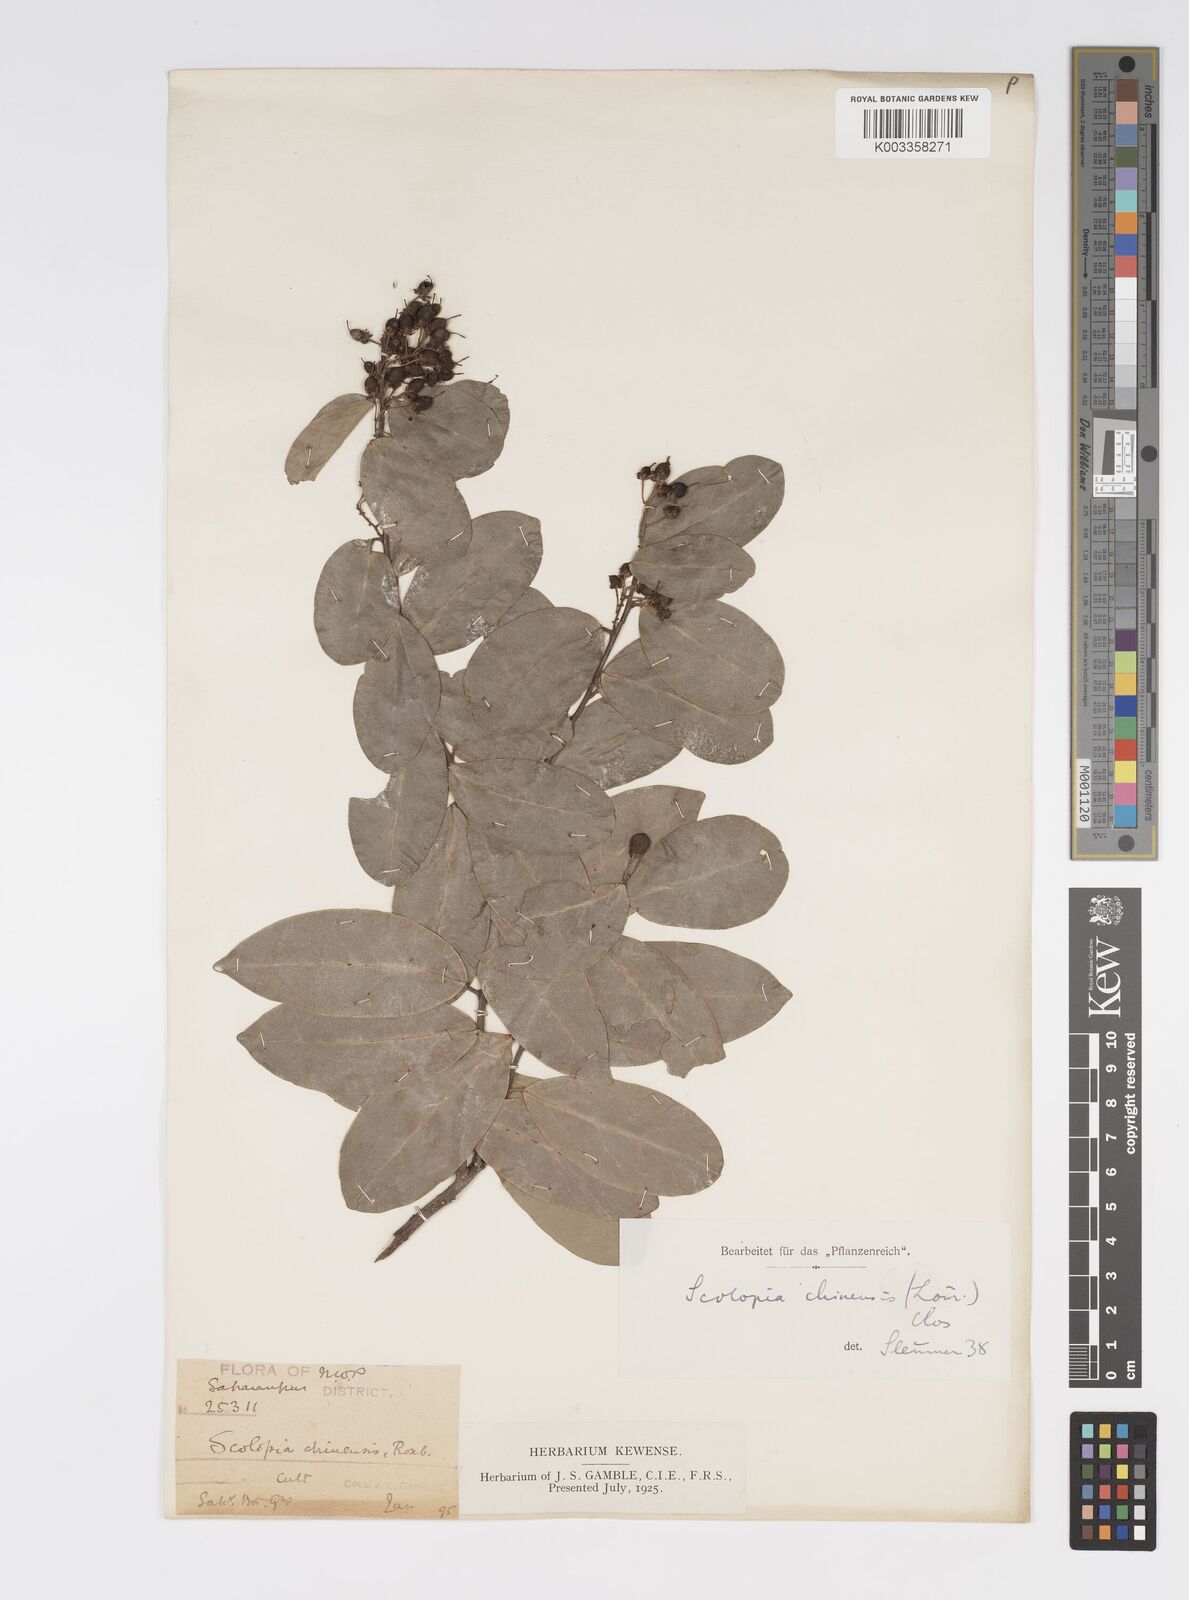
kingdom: Plantae
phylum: Tracheophyta
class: Magnoliopsida
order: Malpighiales
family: Salicaceae
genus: Scolopia
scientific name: Scolopia
